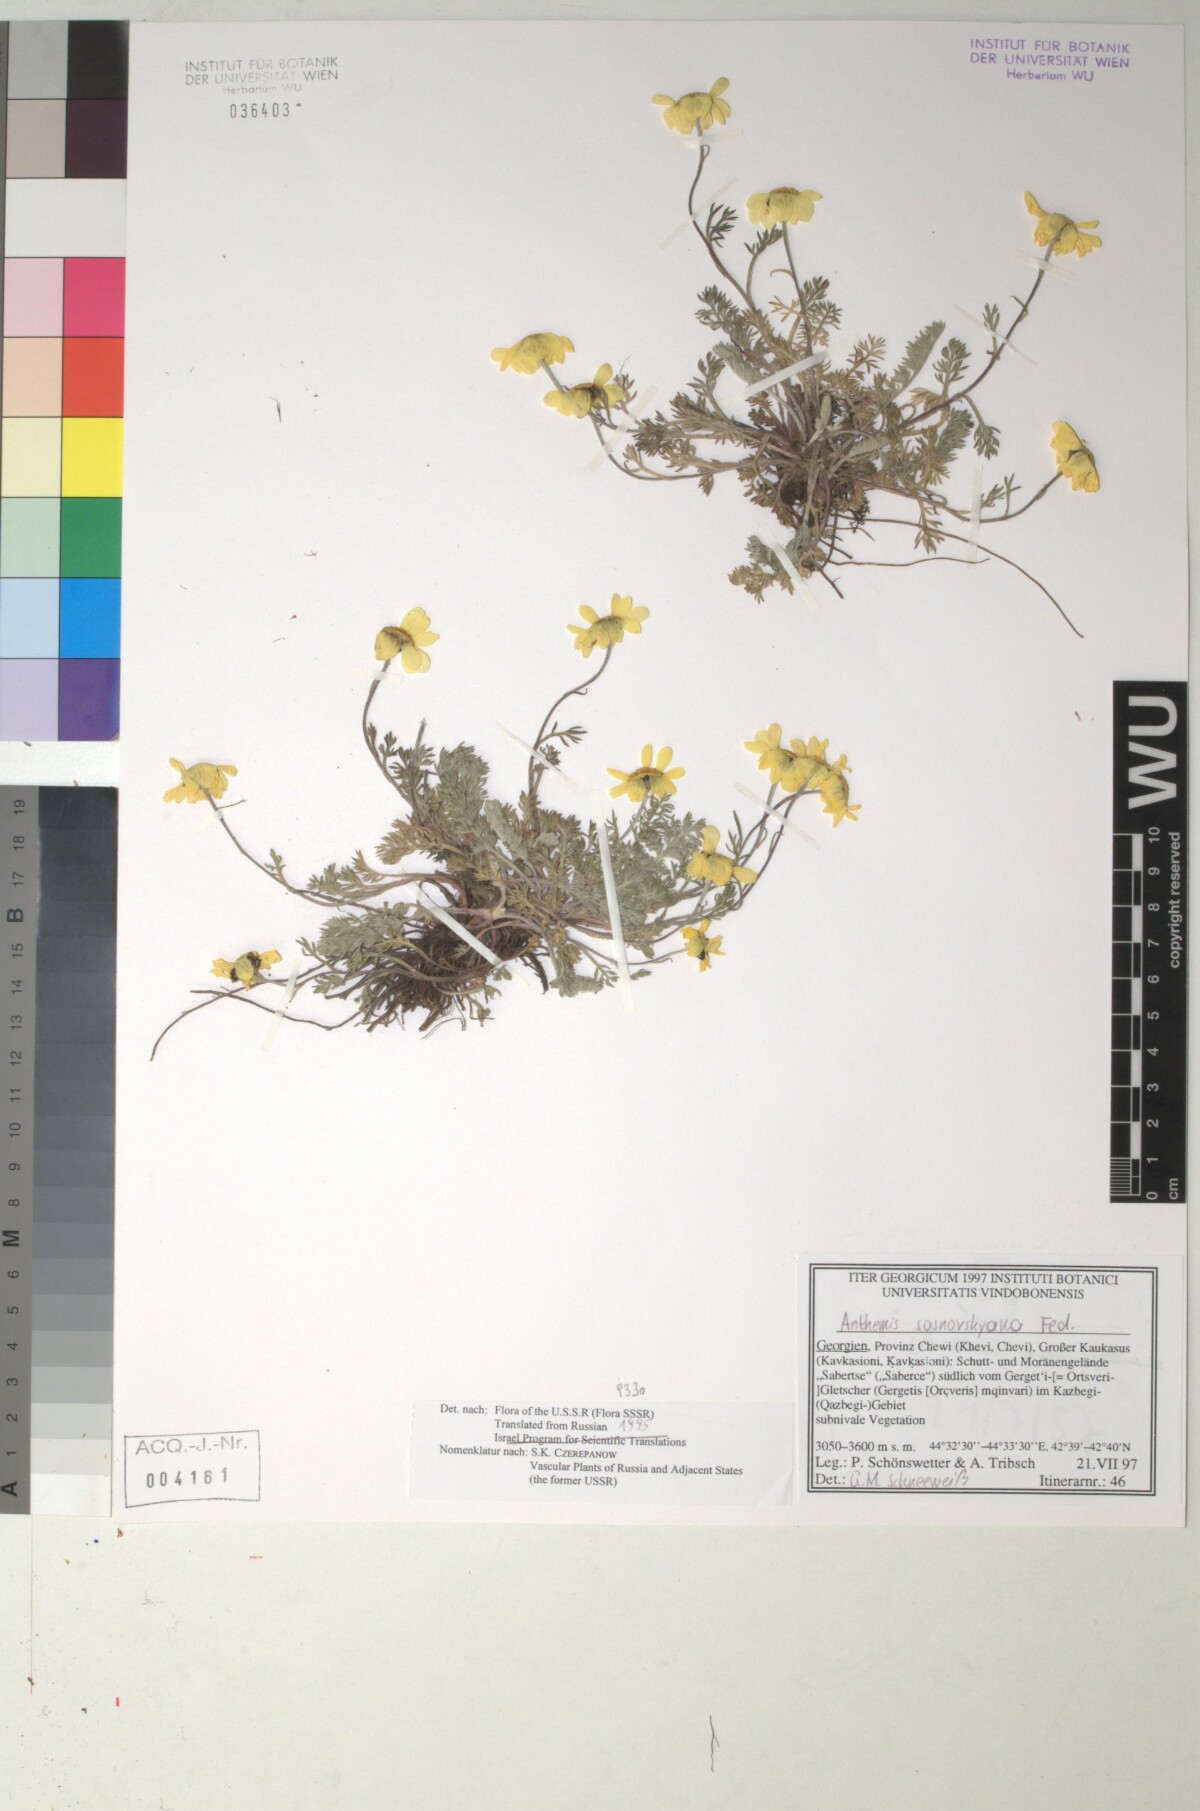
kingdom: Plantae
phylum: Tracheophyta
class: Magnoliopsida
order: Asterales
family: Asteraceae
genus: Archanthemis
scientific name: Archanthemis marschalliana
